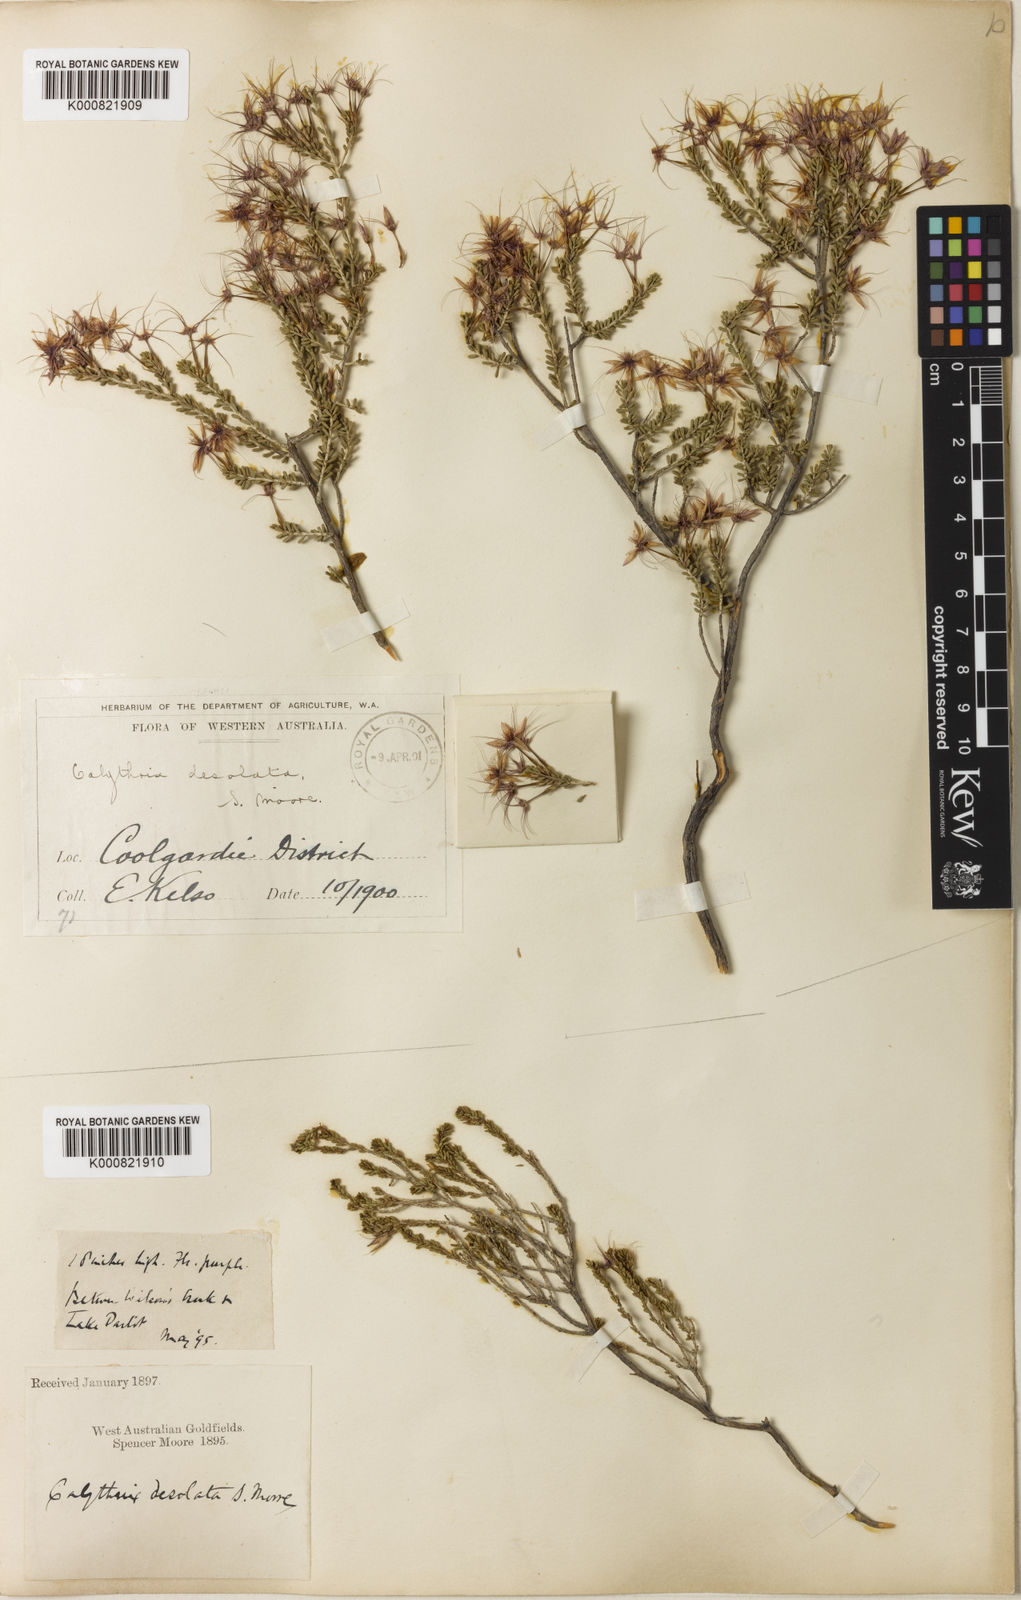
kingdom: Plantae
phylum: Tracheophyta
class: Magnoliopsida
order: Myrtales
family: Myrtaceae
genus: Calytrix
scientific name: Calytrix desolata
